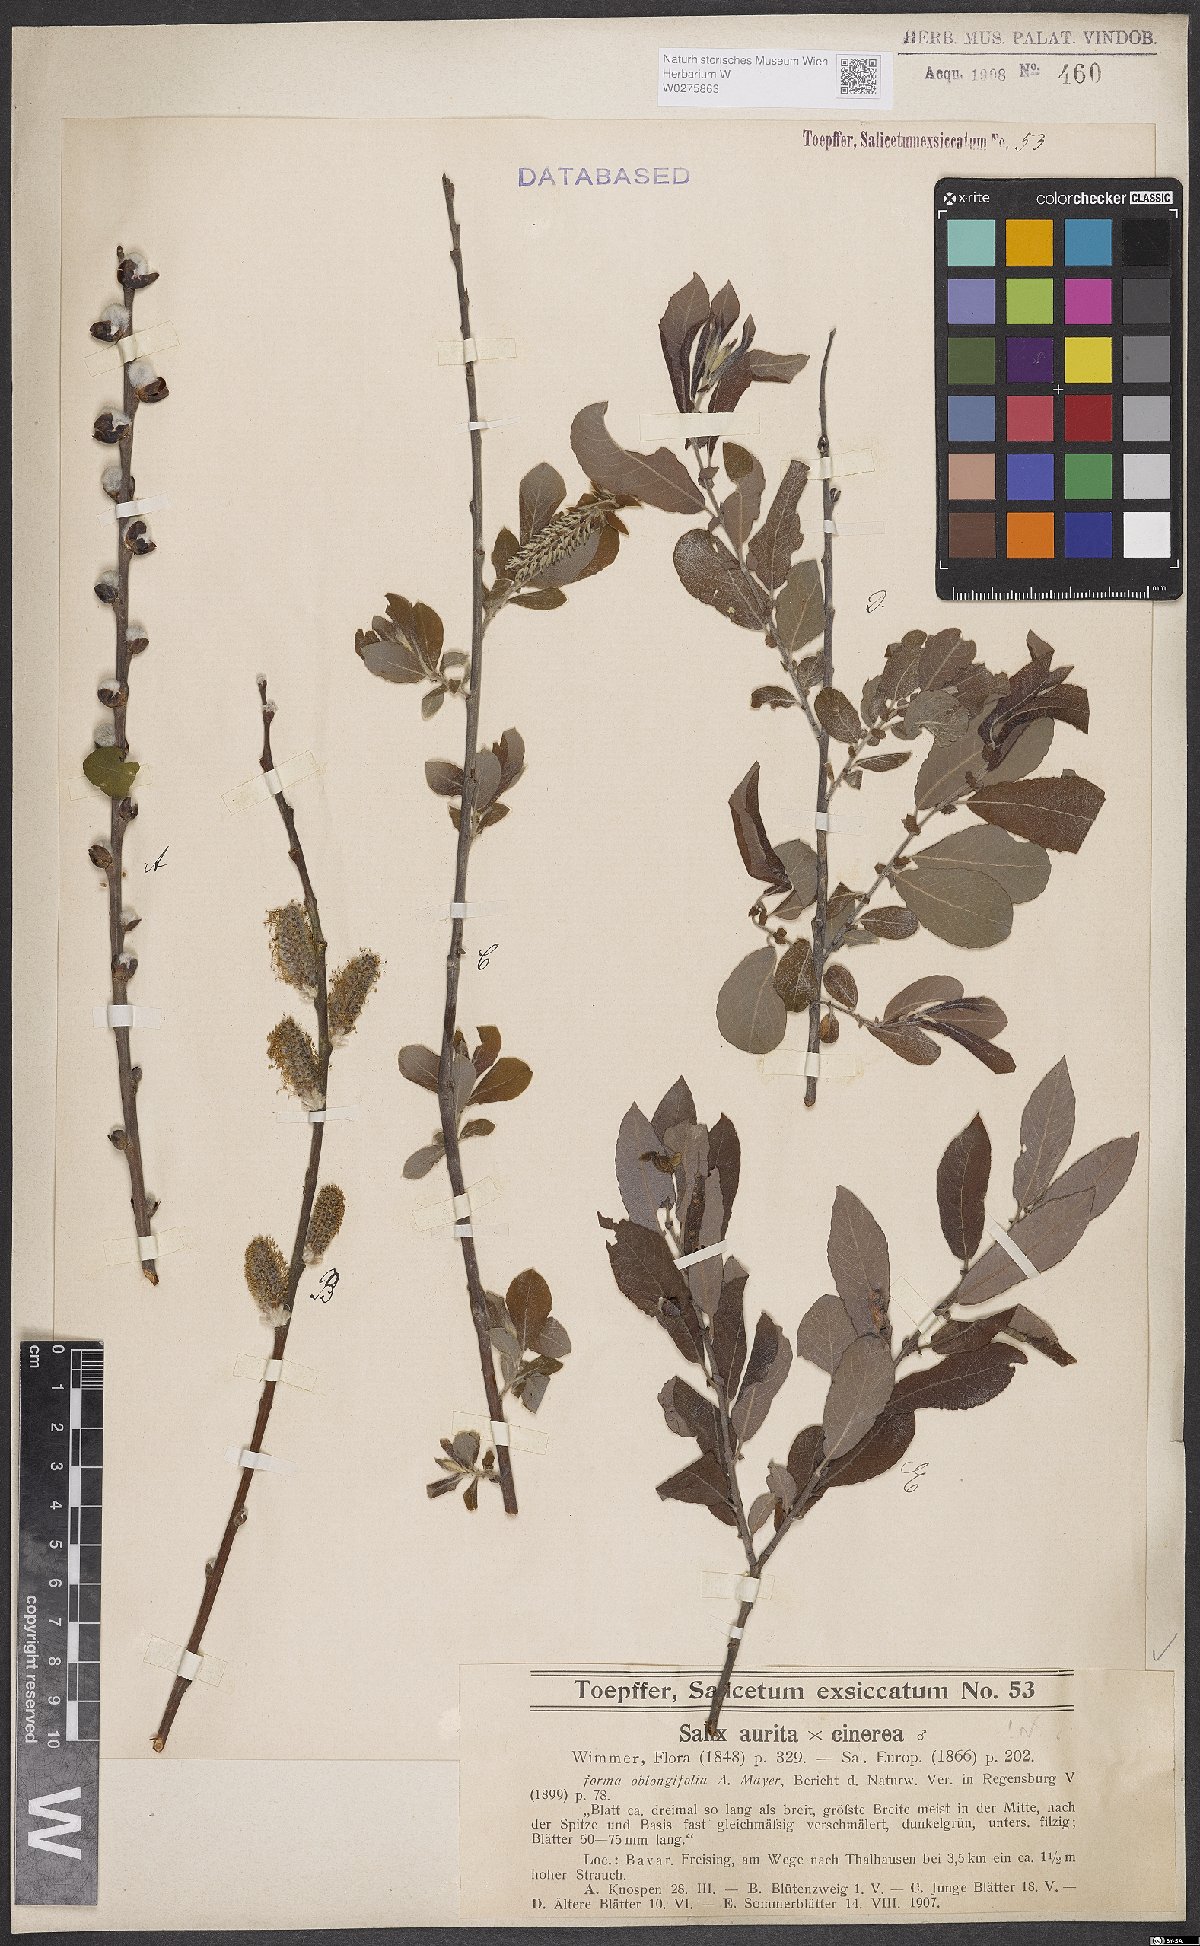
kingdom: Plantae
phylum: Tracheophyta
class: Magnoliopsida
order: Malpighiales
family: Salicaceae
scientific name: Salicaceae
